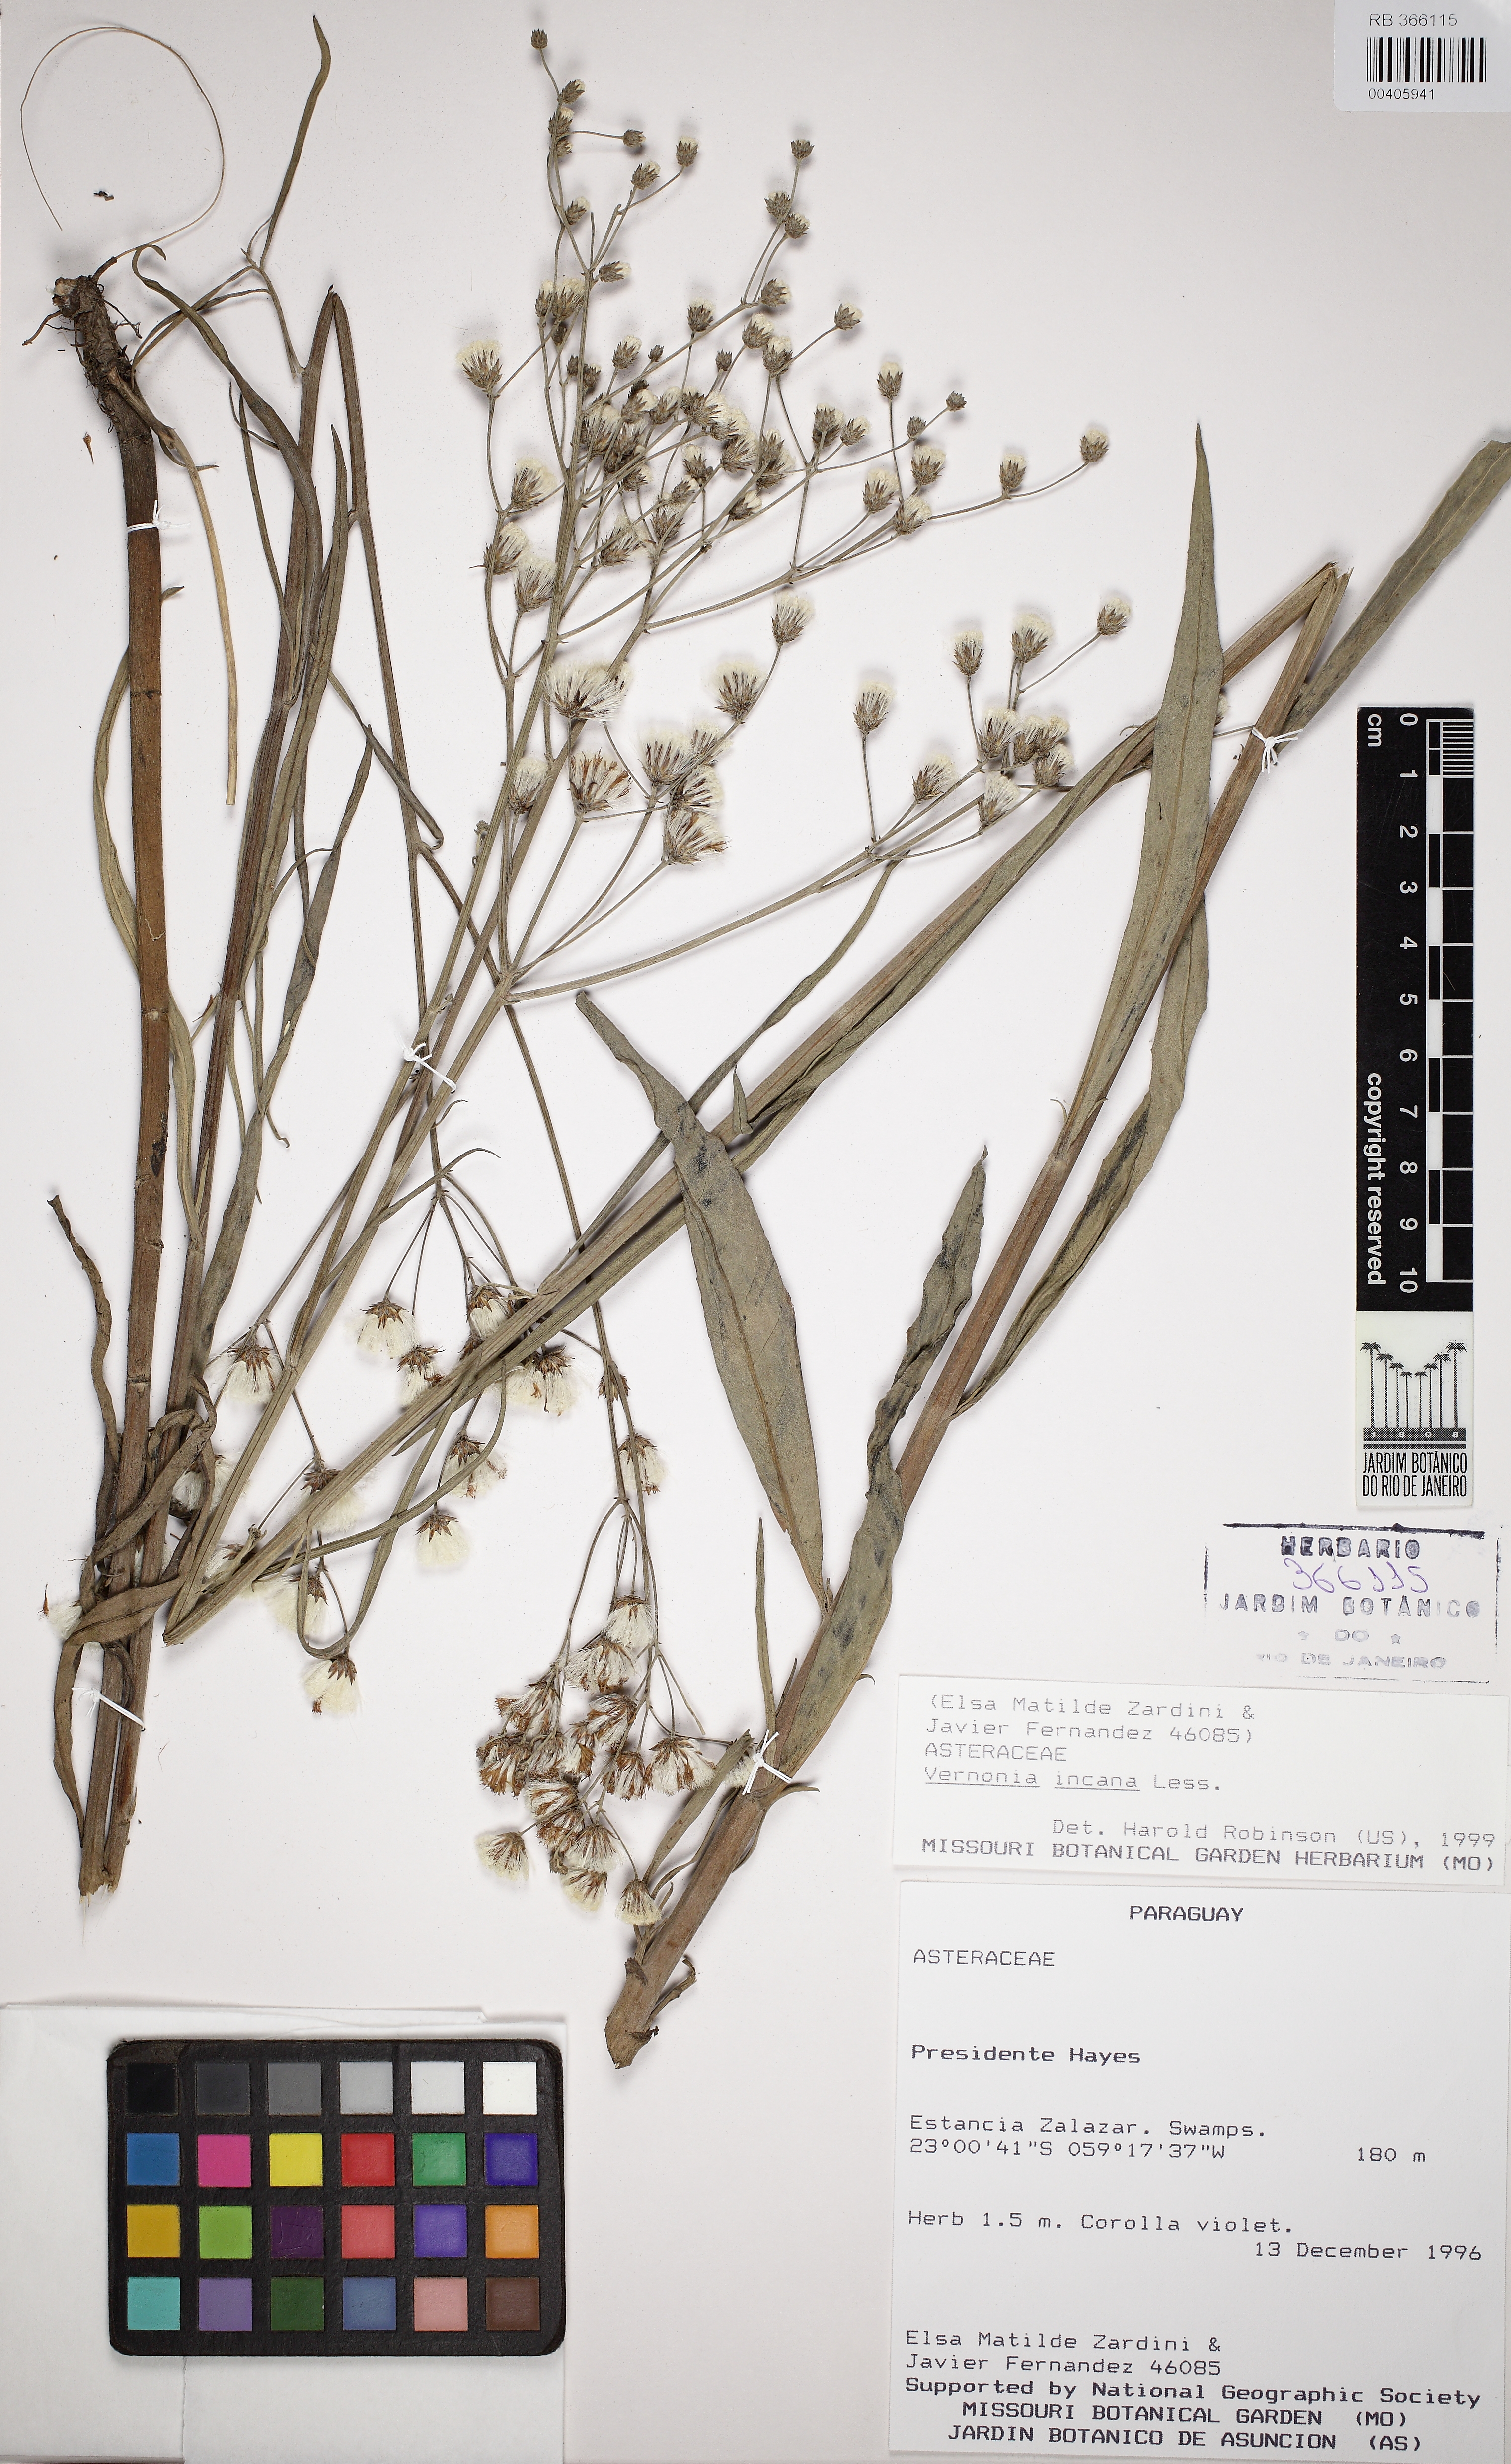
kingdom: Plantae
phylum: Tracheophyta
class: Magnoliopsida
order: Asterales
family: Asteraceae
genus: Vernonia
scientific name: Vernonia incana
